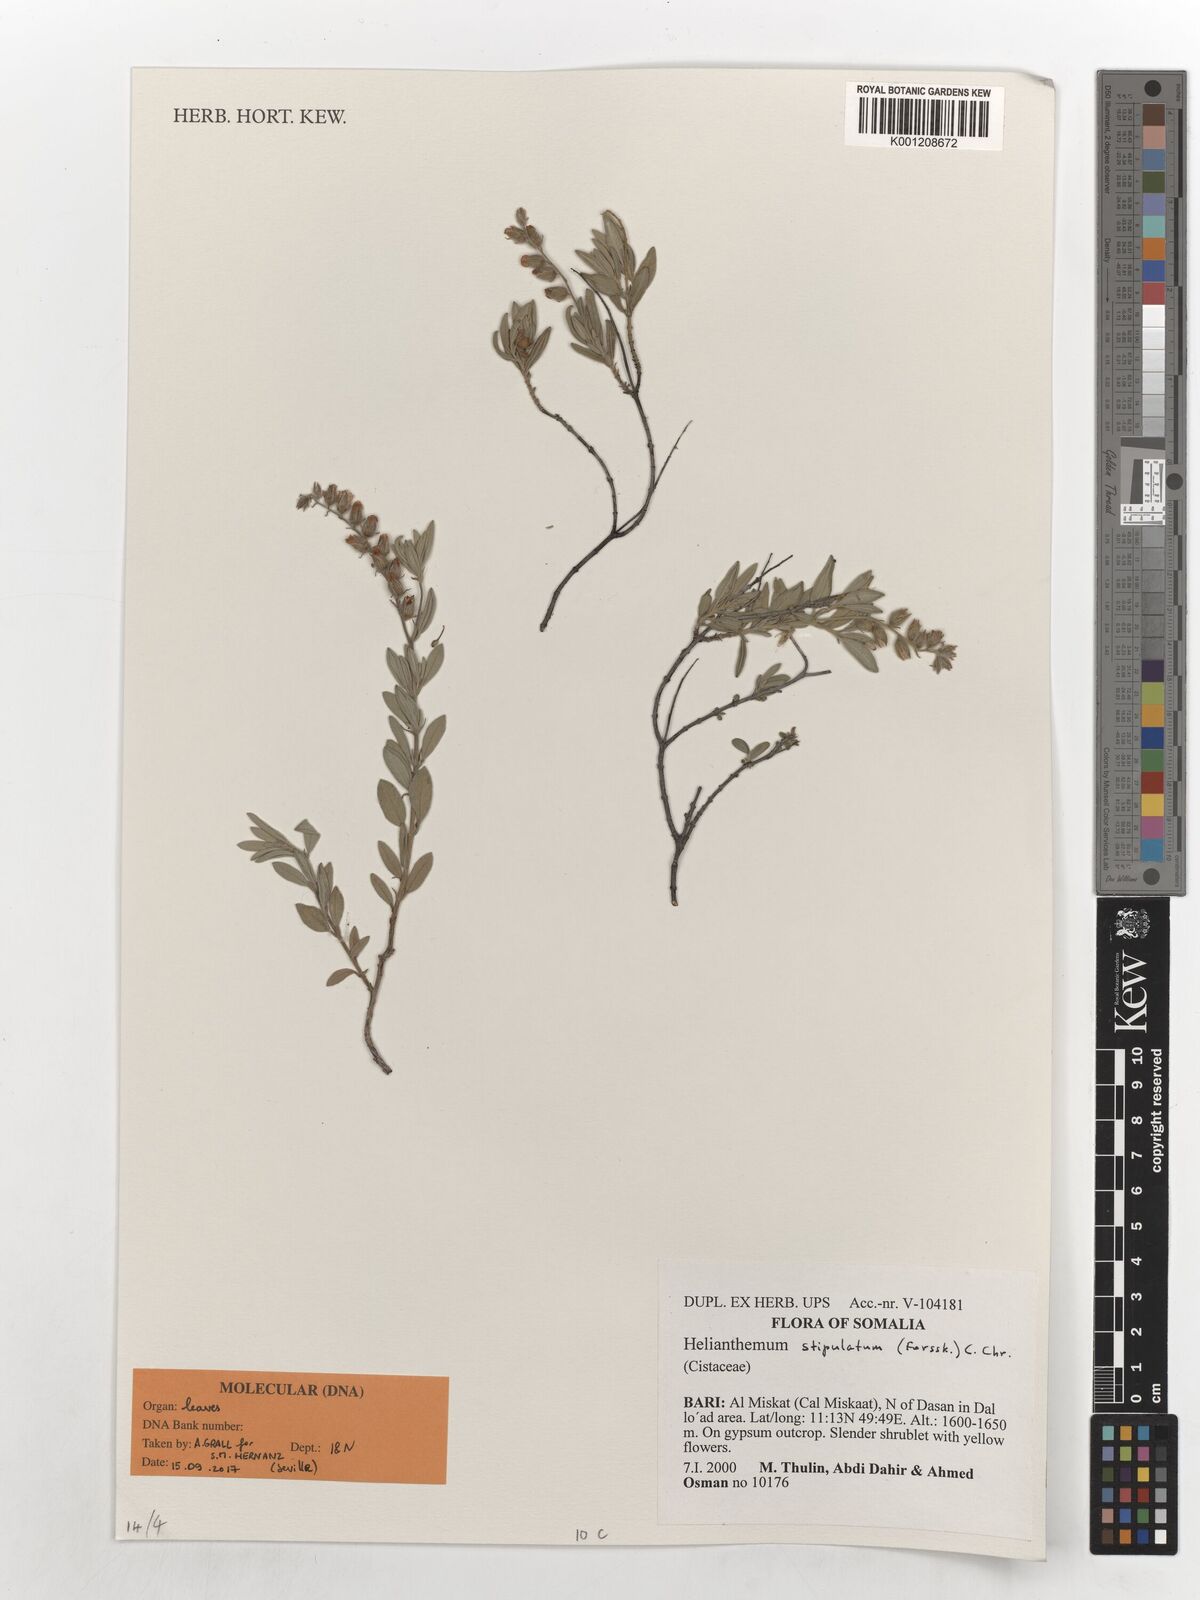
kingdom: Plantae
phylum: Tracheophyta
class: Magnoliopsida
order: Malvales
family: Cistaceae
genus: Helianthemum
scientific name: Helianthemum stipulatum
